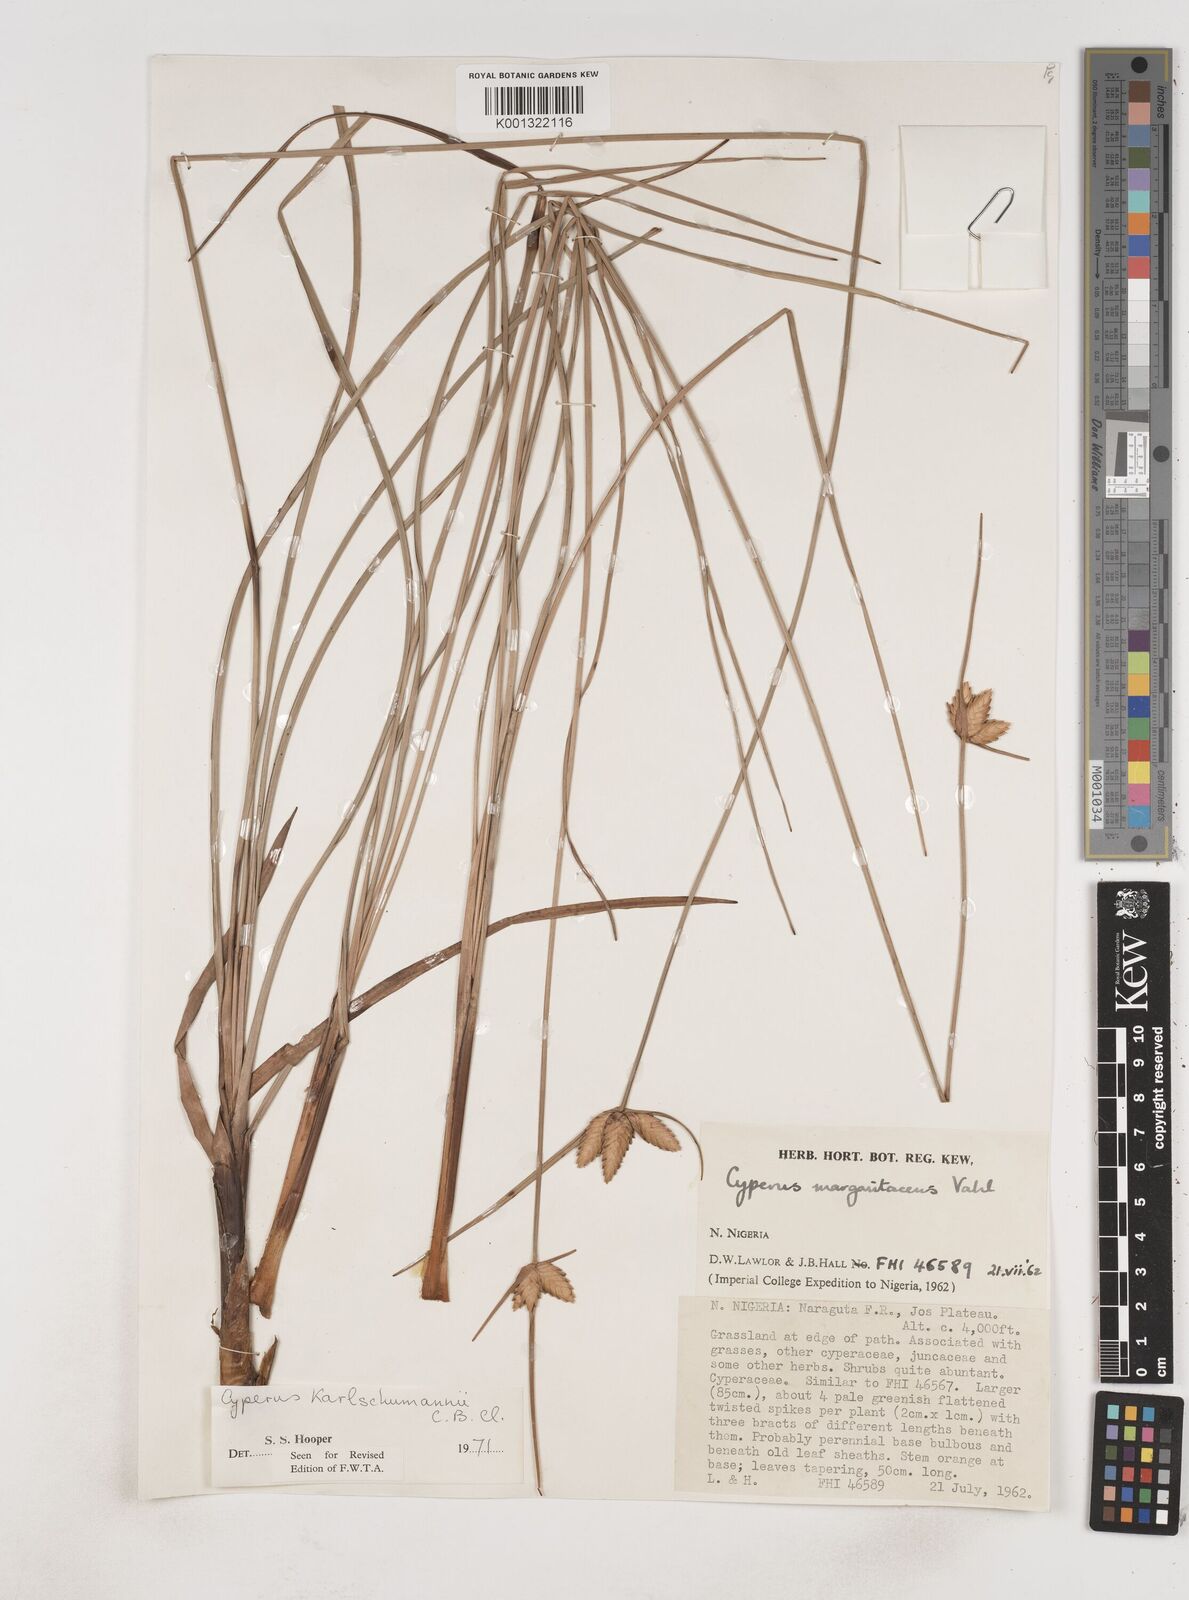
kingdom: Plantae
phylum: Tracheophyta
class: Liliopsida
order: Poales
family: Cyperaceae
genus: Cyperus
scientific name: Cyperus karlschumannii
